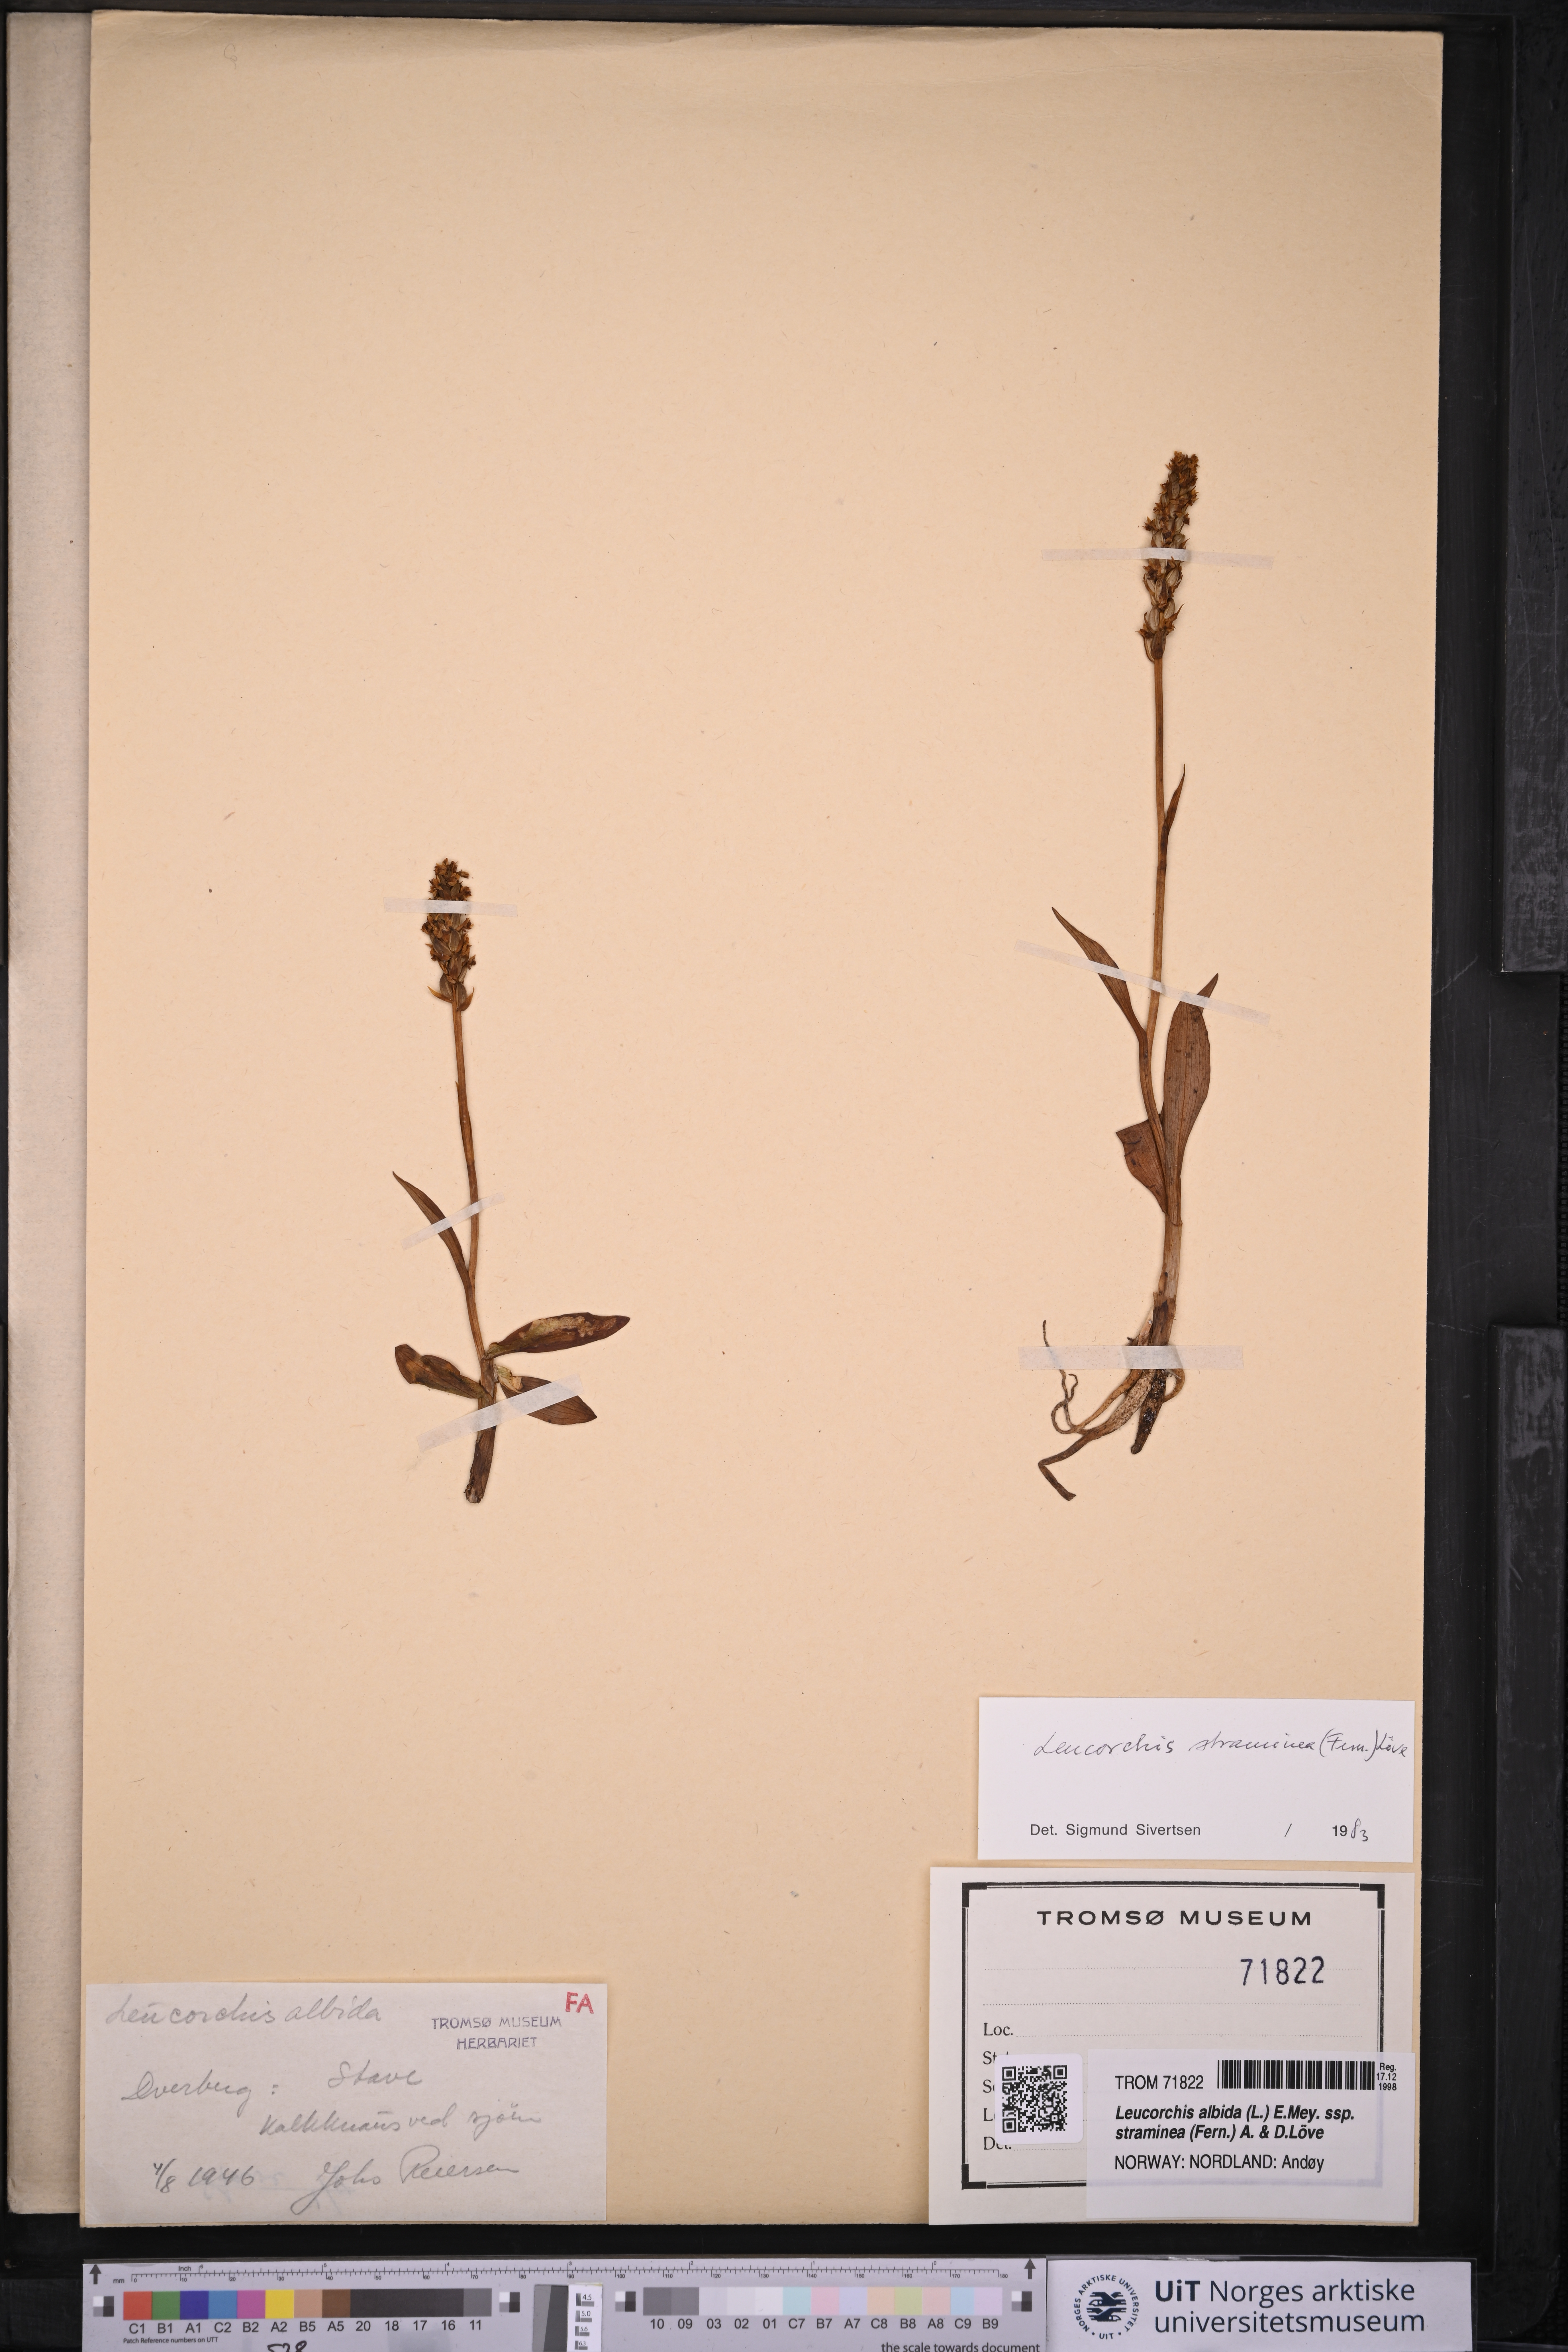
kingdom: Plantae
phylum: Tracheophyta
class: Liliopsida
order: Asparagales
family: Orchidaceae
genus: Pseudorchis
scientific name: Pseudorchis straminea
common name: Vanilla-scented bog orchid
